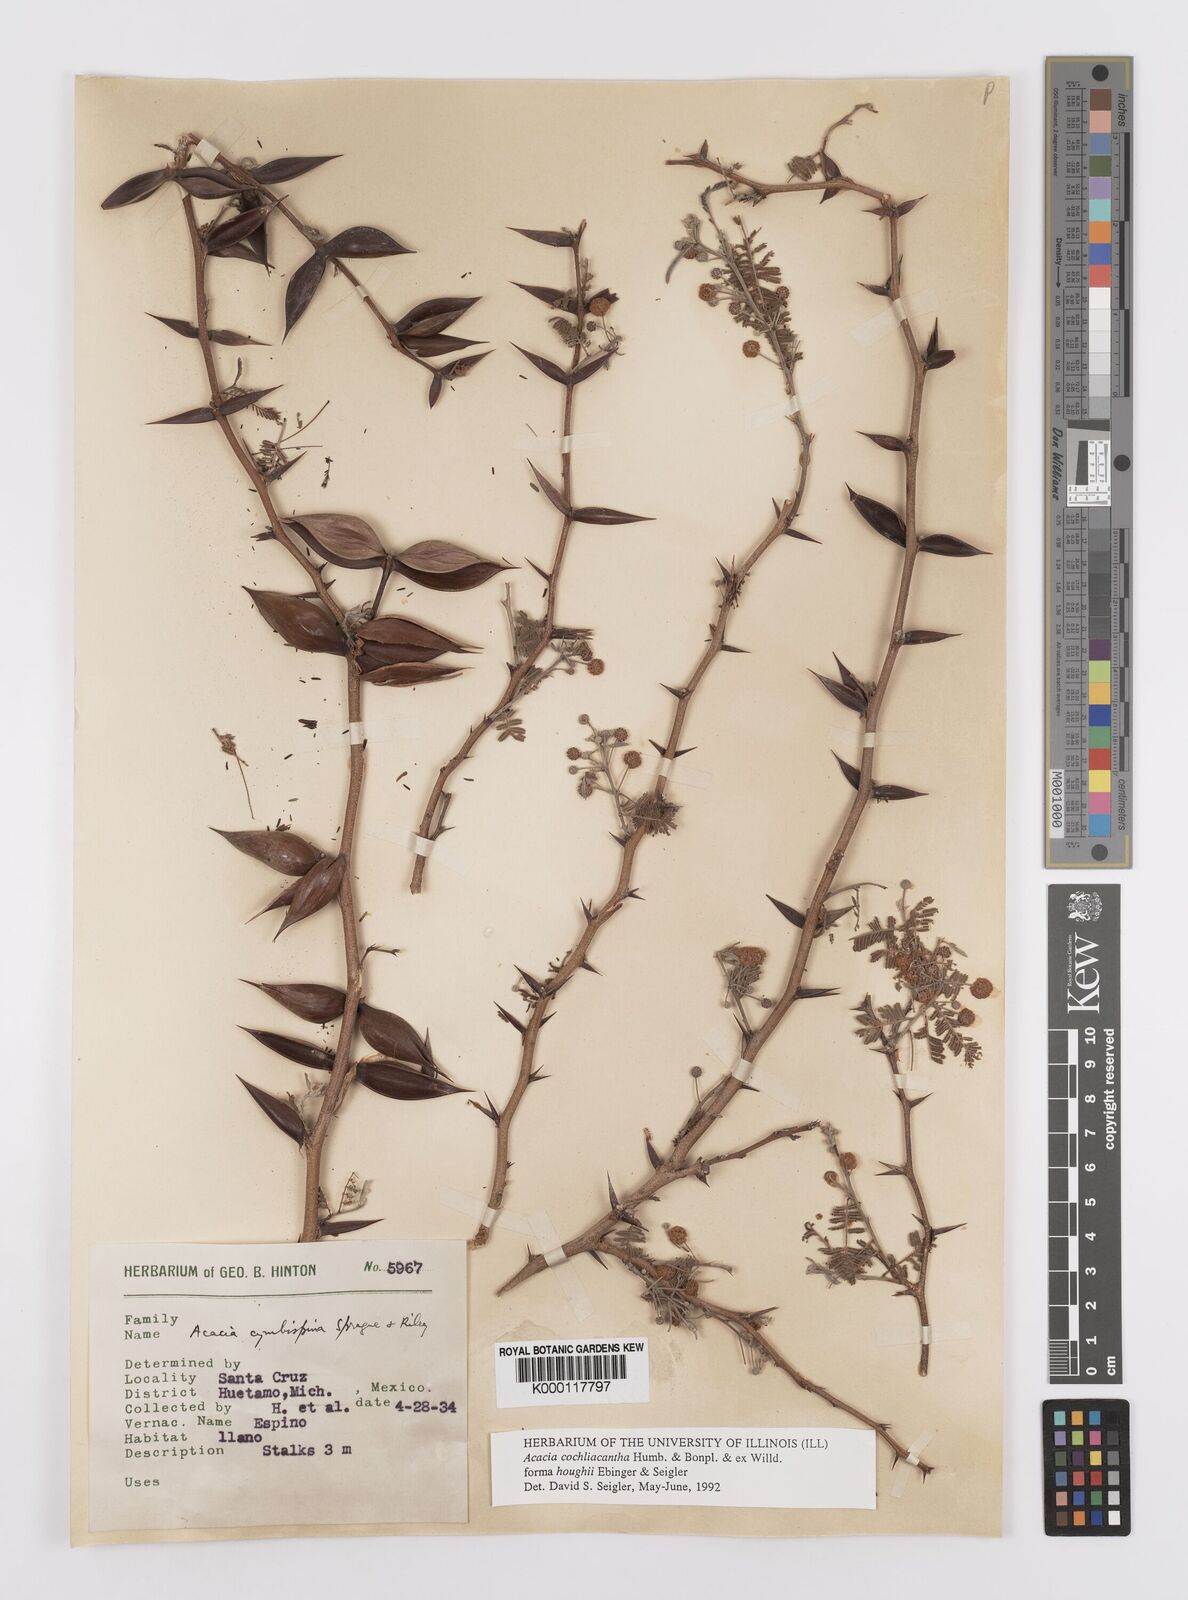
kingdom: Plantae
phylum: Tracheophyta
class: Magnoliopsida
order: Fabales
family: Fabaceae
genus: Vachellia
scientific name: Vachellia campeachiana
